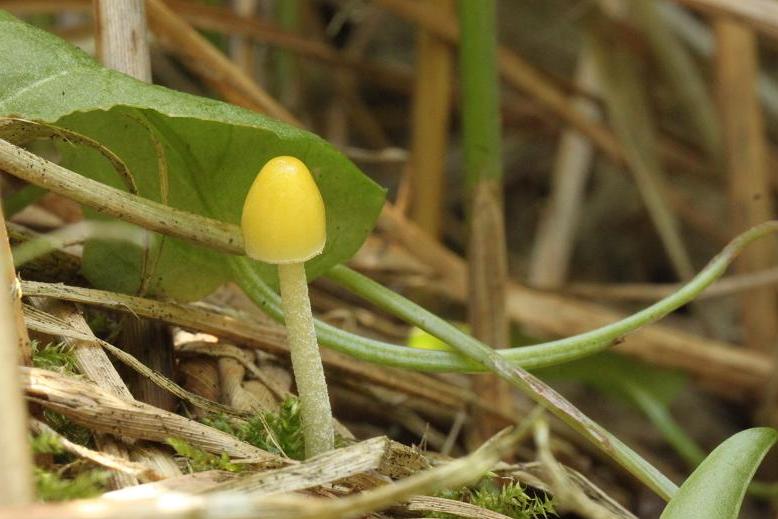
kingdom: Fungi
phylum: Basidiomycota
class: Agaricomycetes
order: Agaricales
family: Bolbitiaceae
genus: Bolbitius
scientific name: Bolbitius titubans
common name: almindelig gulhat
